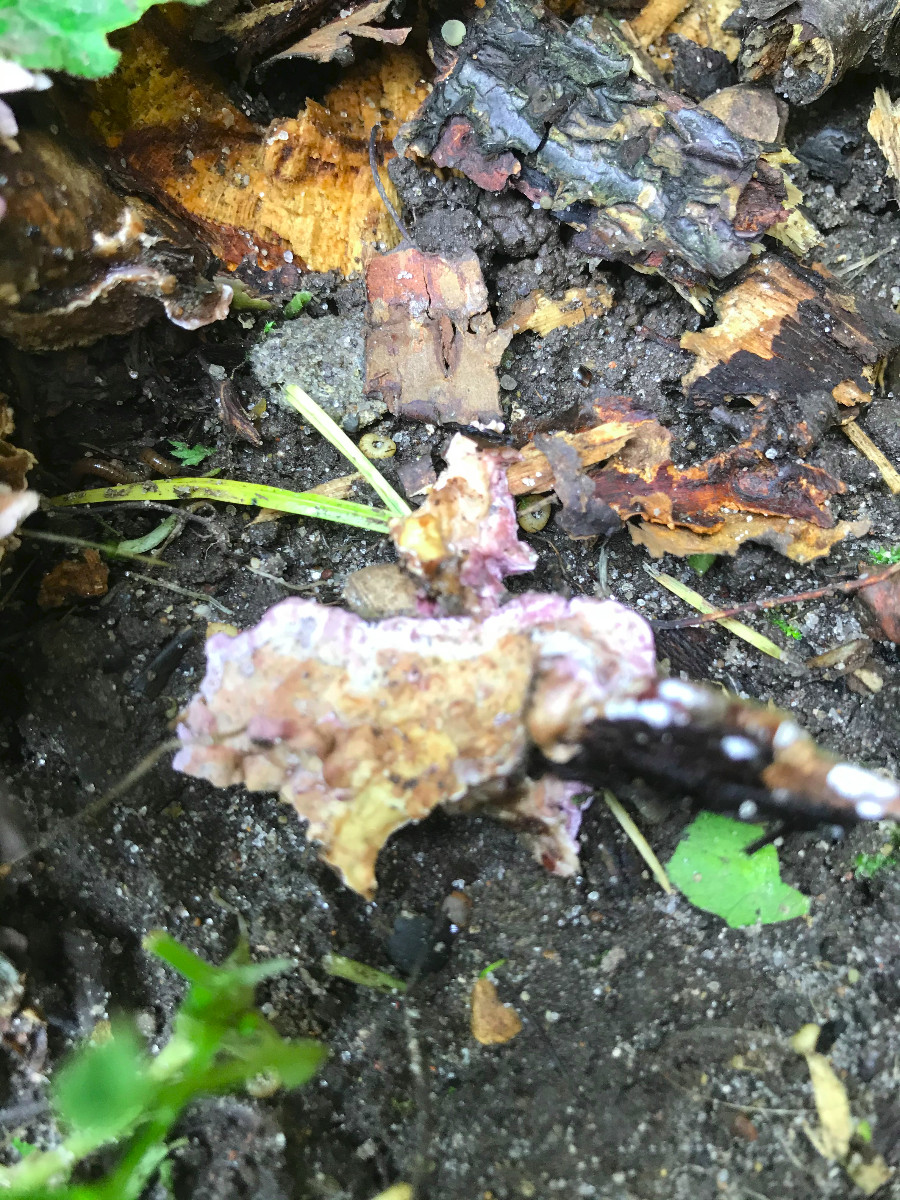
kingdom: Fungi
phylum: Basidiomycota
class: Agaricomycetes
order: Agaricales
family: Cyphellaceae
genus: Chondrostereum
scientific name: Chondrostereum purpureum
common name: purpurlædersvamp
